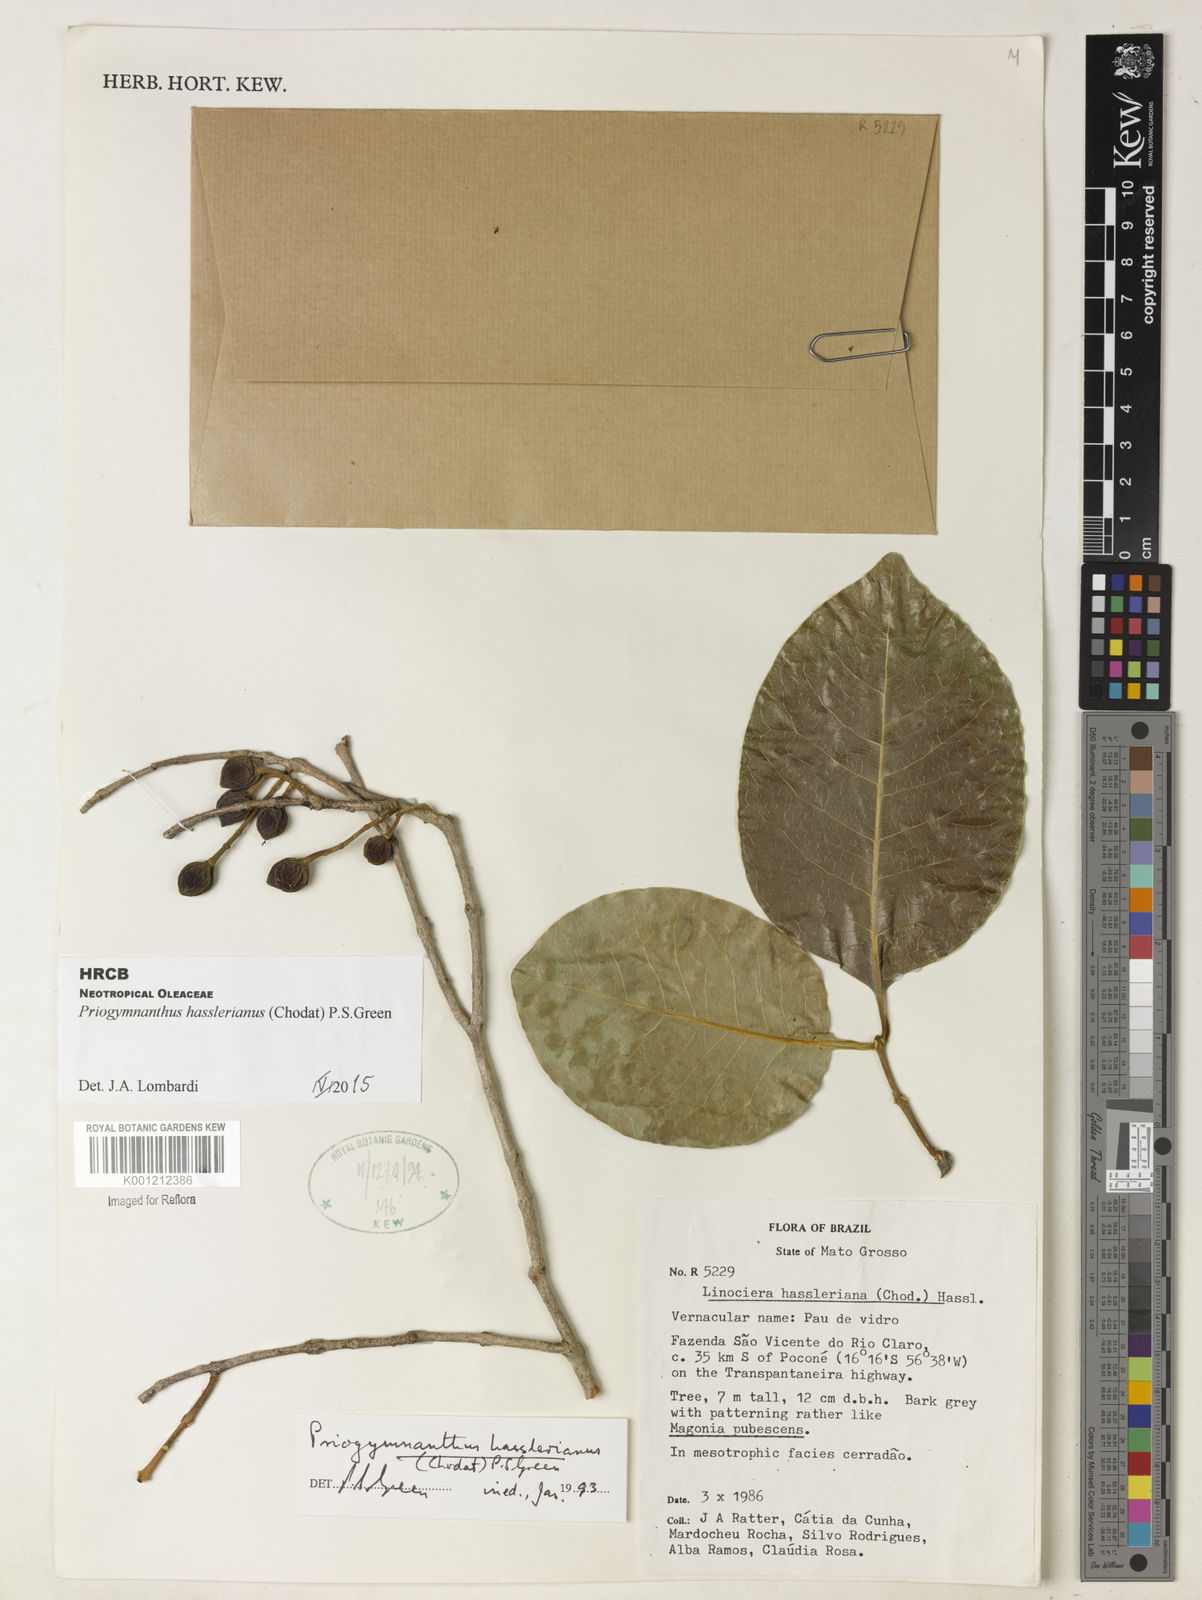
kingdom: Plantae
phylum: Tracheophyta
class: Magnoliopsida
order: Lamiales
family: Oleaceae
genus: Priogymnanthus
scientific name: Priogymnanthus hasslerianus
